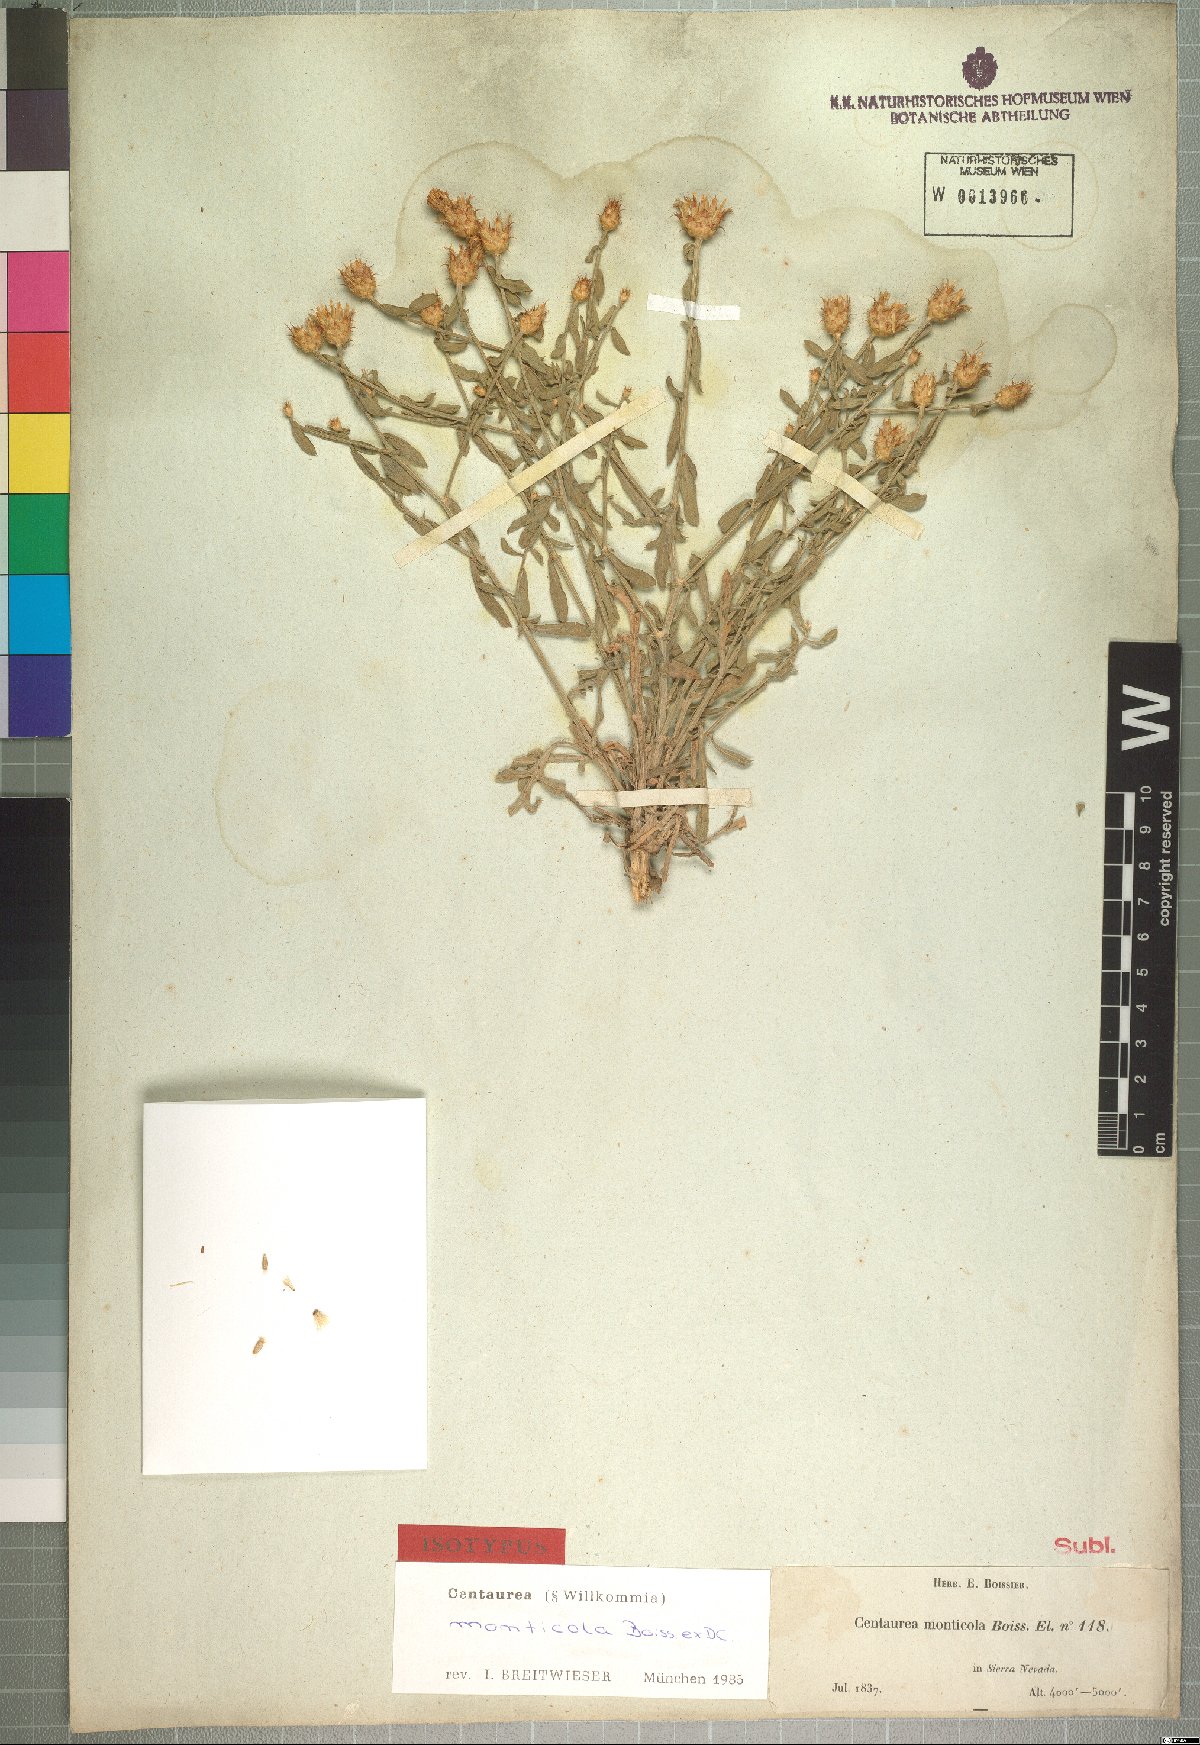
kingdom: Plantae
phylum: Tracheophyta
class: Magnoliopsida
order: Asterales
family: Asteraceae
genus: Centaurea
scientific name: Centaurea monticola
